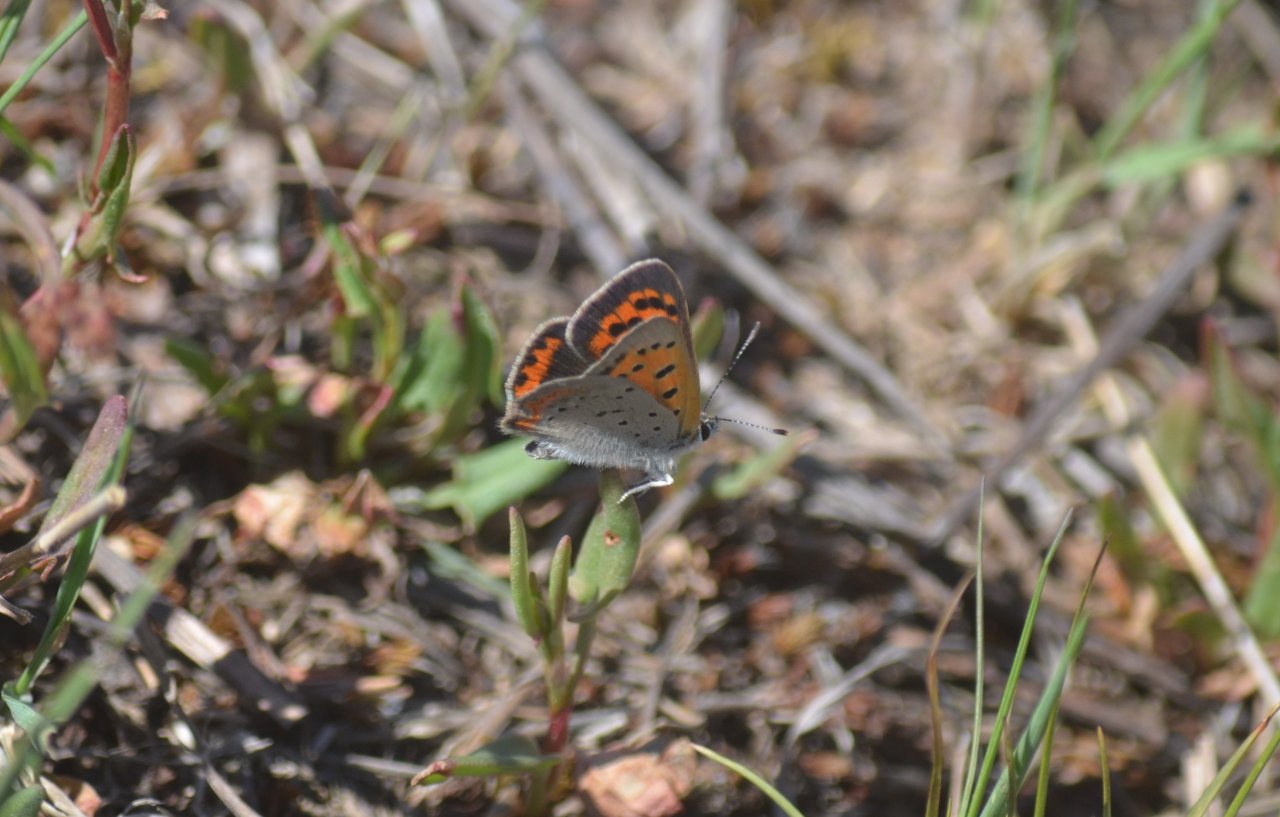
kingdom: Animalia
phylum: Arthropoda
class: Insecta
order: Lepidoptera
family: Lycaenidae
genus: Lycaena
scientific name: Lycaena phlaeas
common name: American Copper
